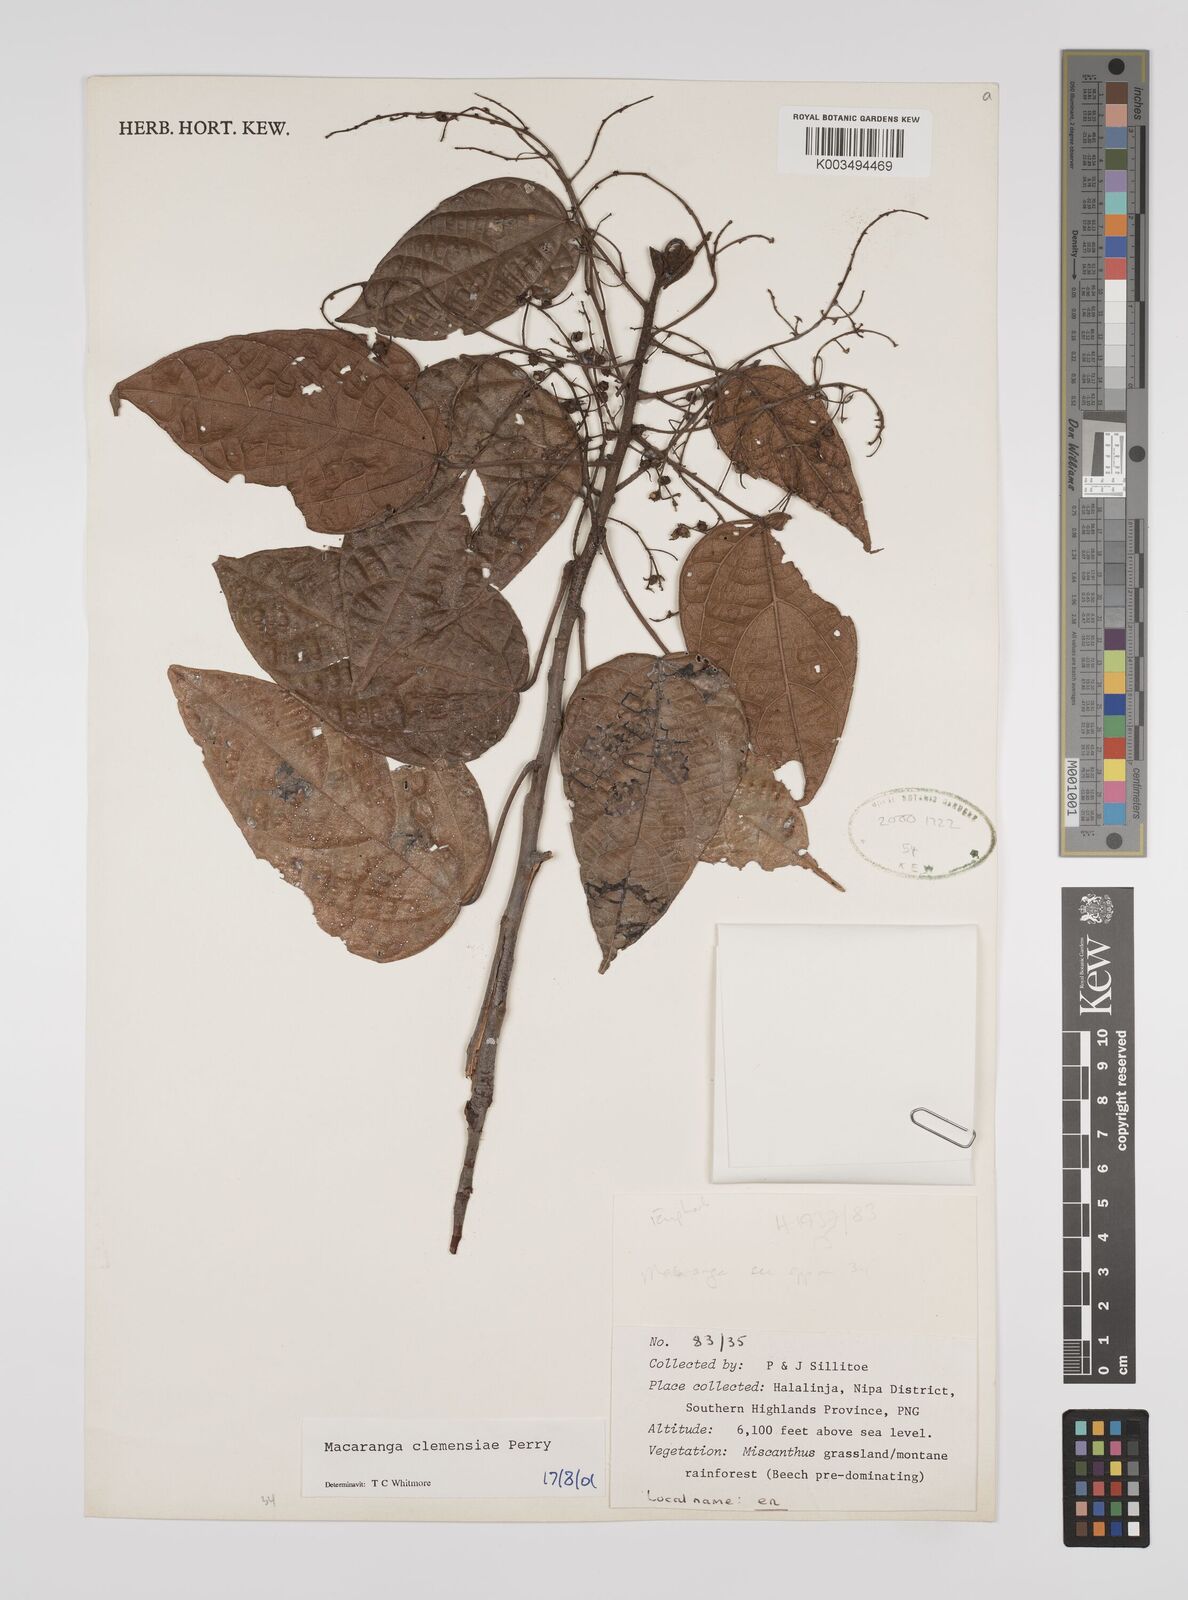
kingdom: Plantae
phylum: Tracheophyta
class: Magnoliopsida
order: Malpighiales
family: Euphorbiaceae
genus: Macaranga
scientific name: Macaranga clemensiae
